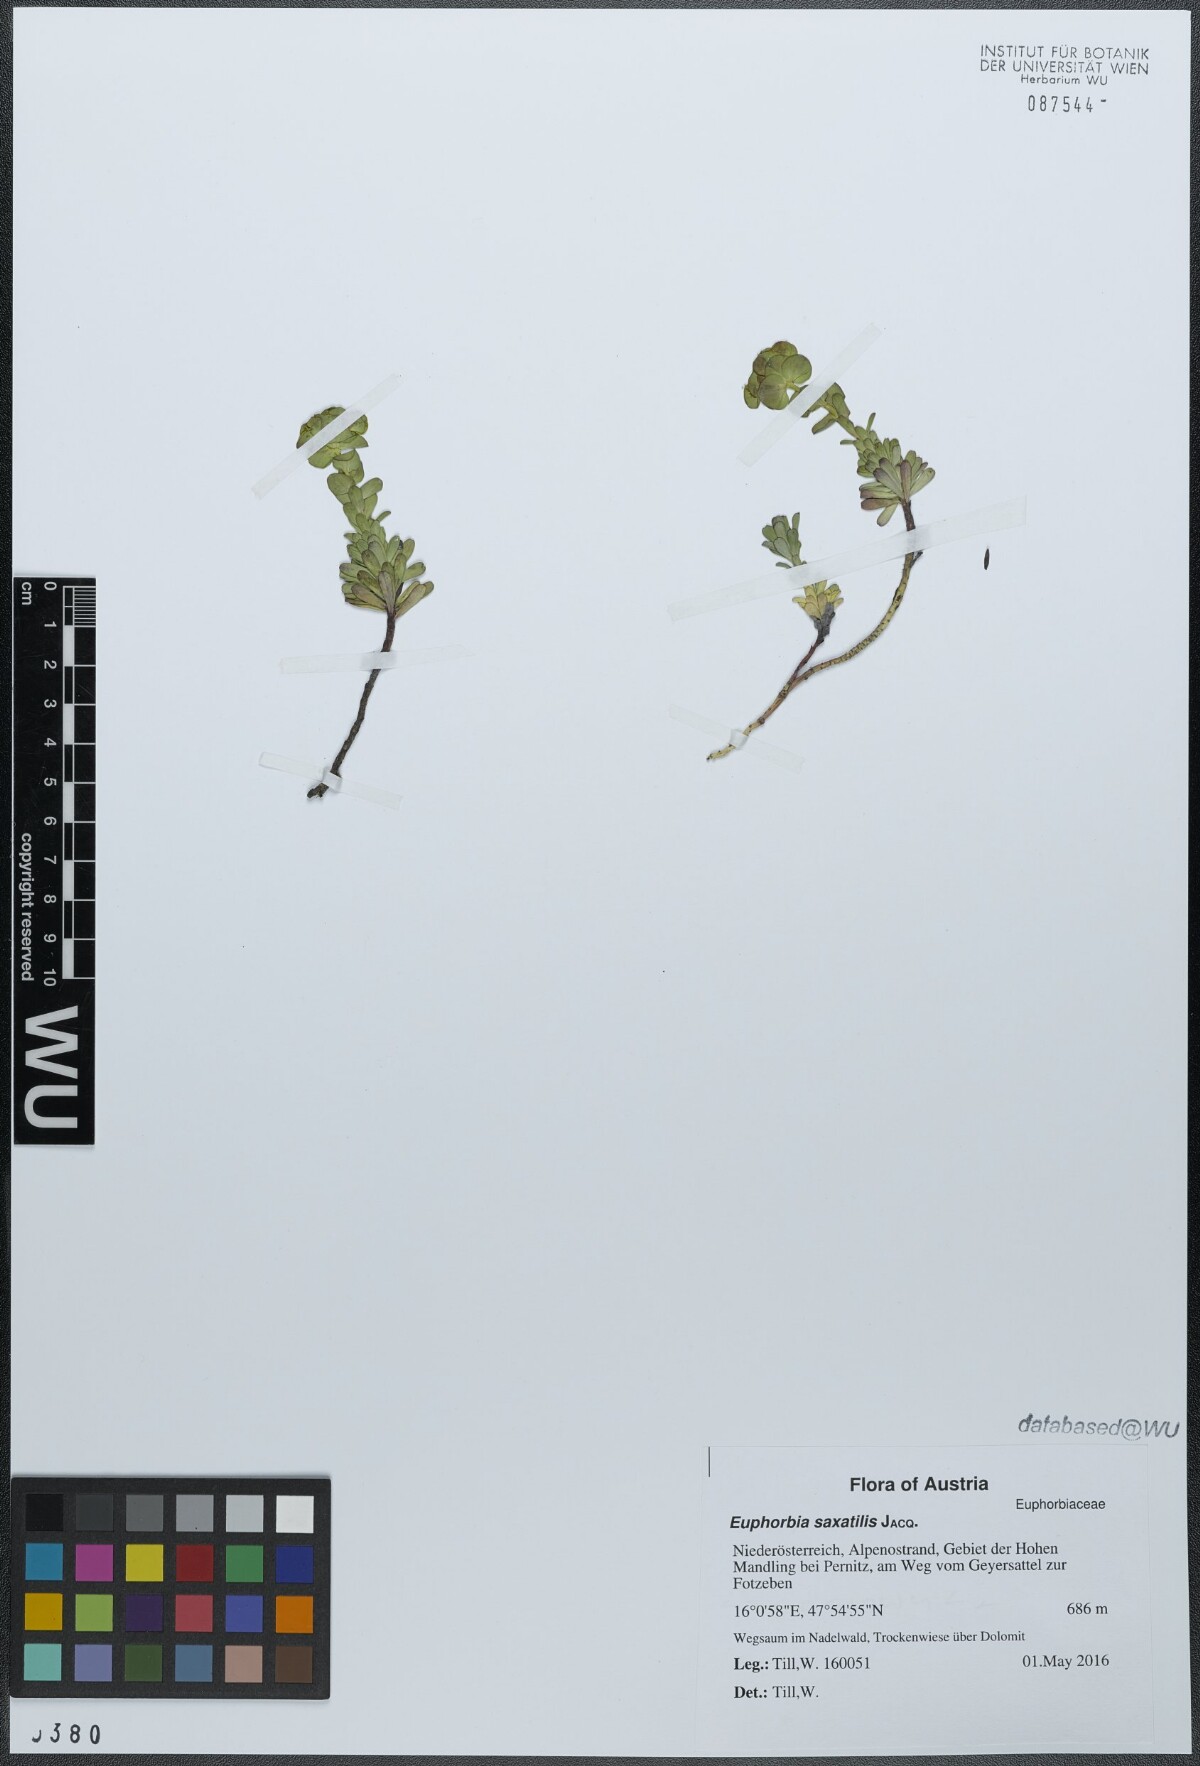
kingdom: Plantae
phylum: Tracheophyta
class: Magnoliopsida
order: Malpighiales
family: Euphorbiaceae
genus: Euphorbia
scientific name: Euphorbia saxatilis
